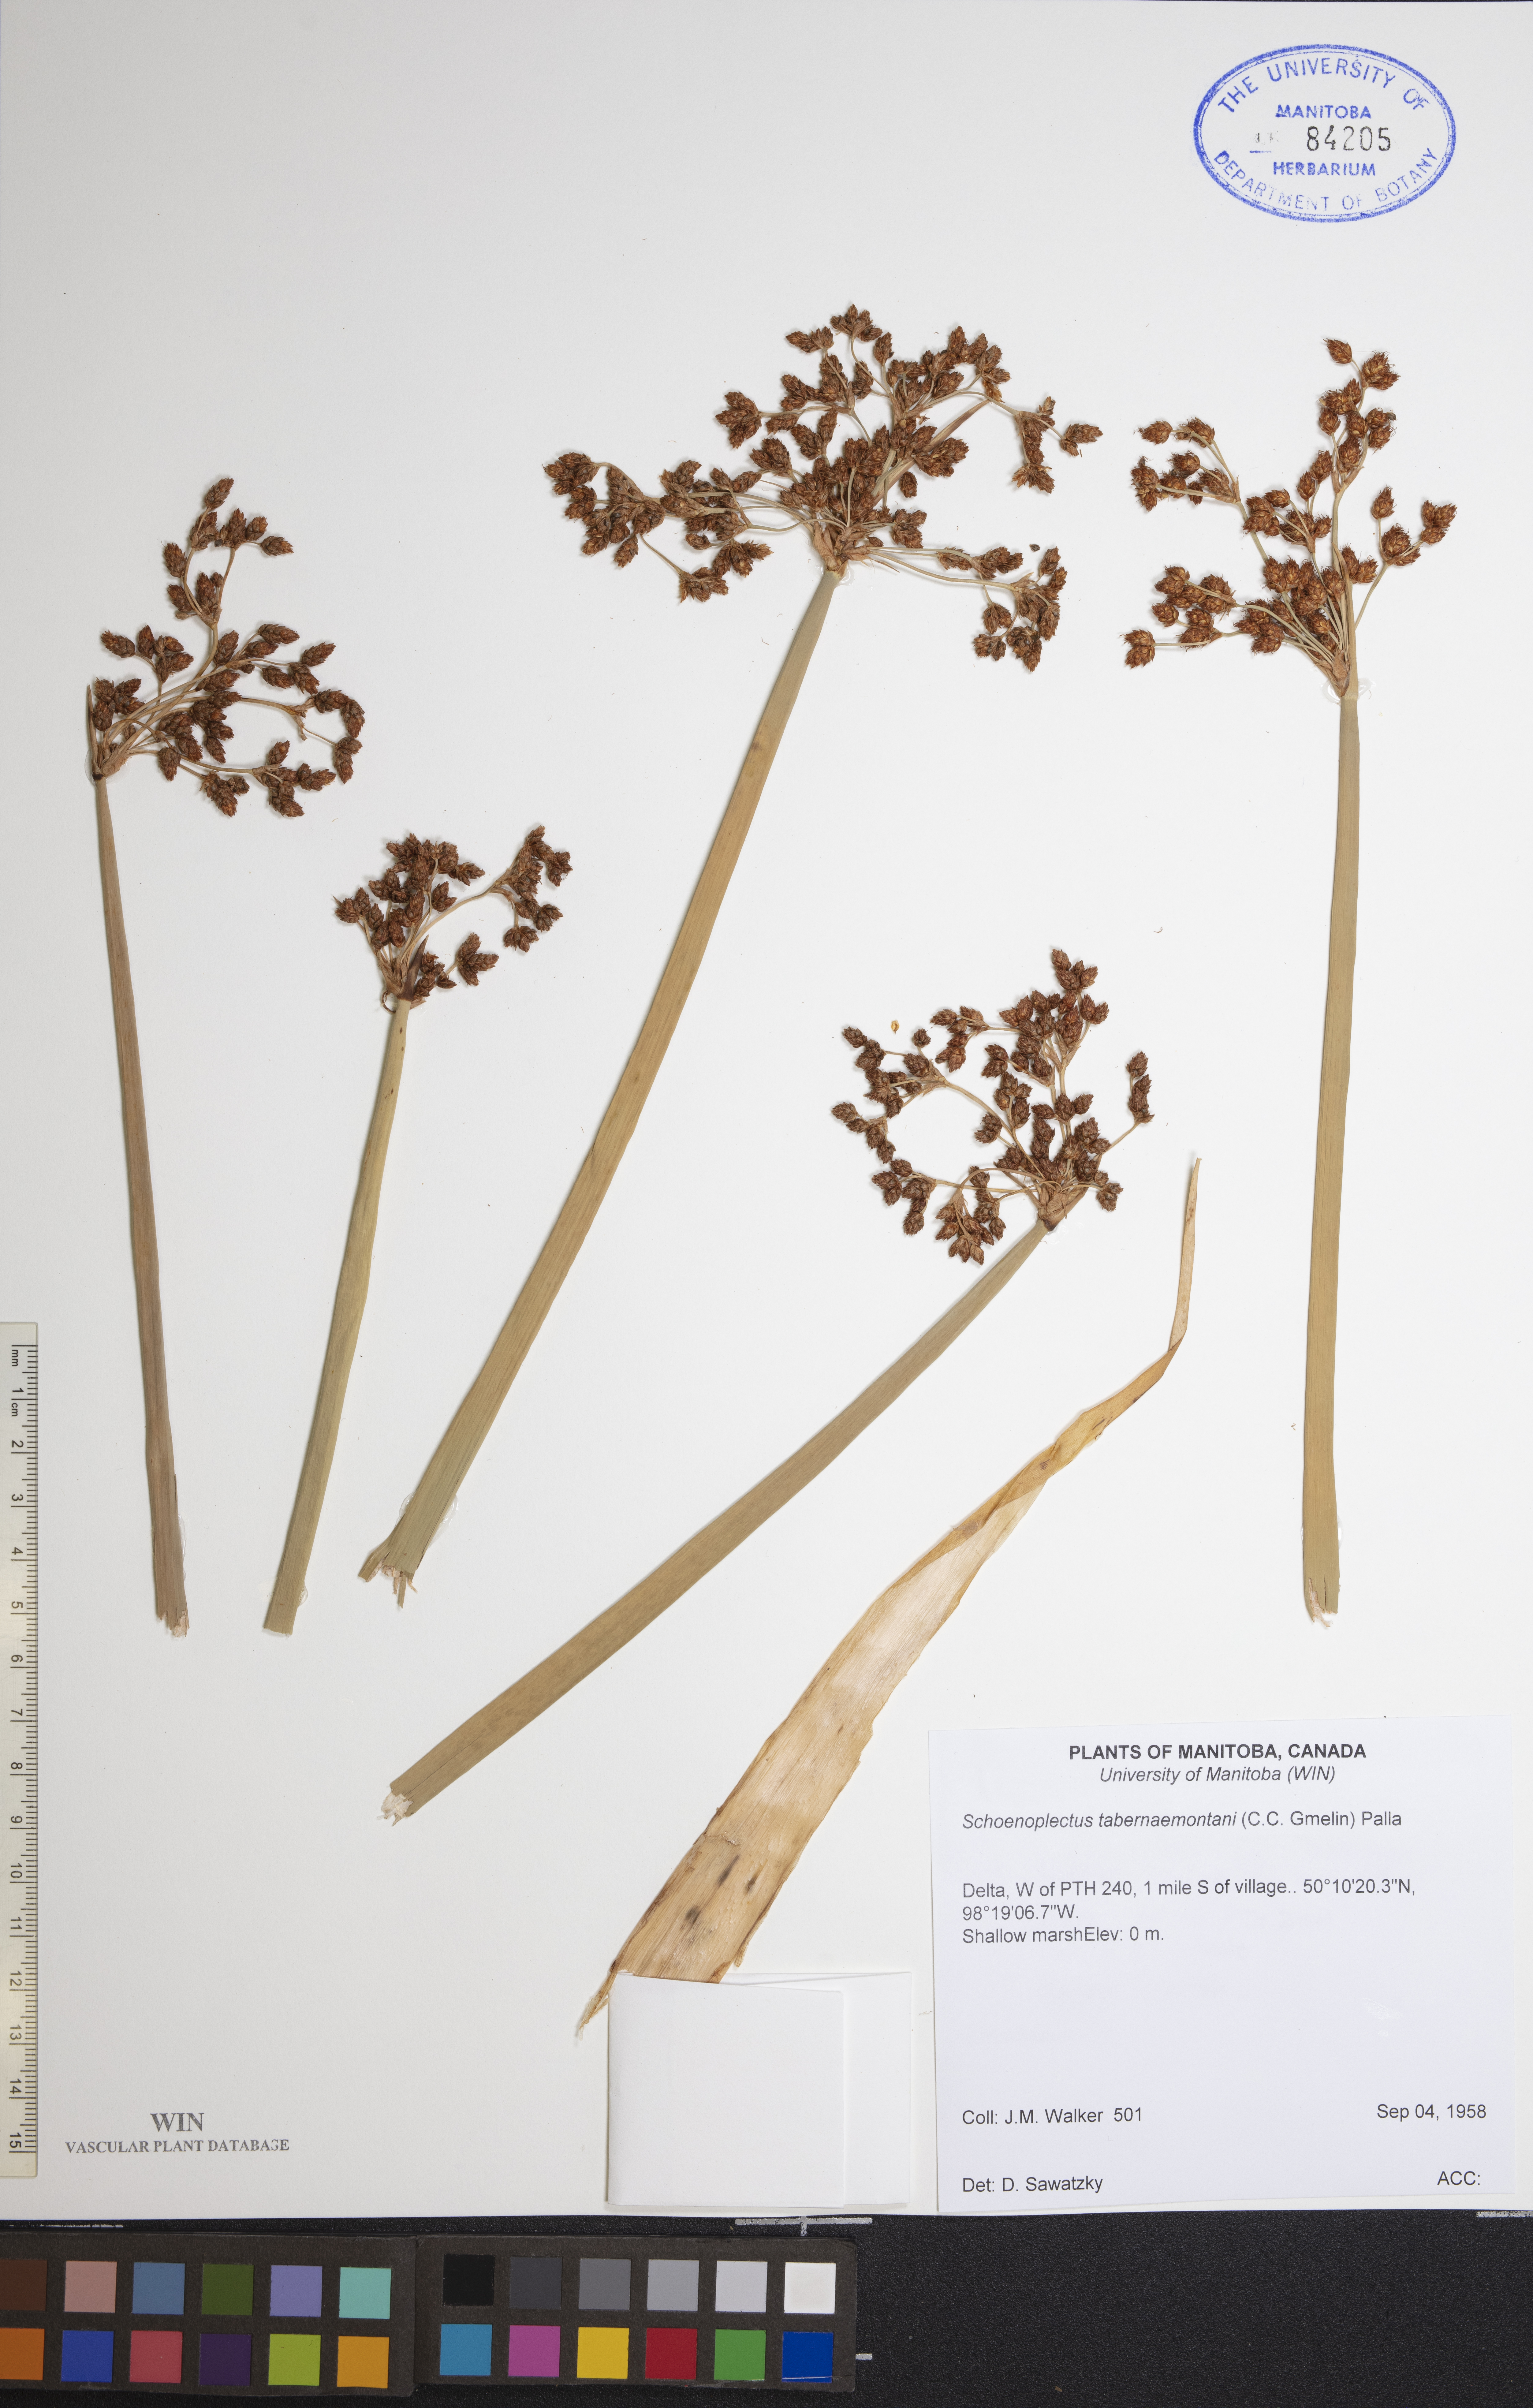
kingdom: Plantae
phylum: Tracheophyta
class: Liliopsida
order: Poales
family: Cyperaceae
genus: Schoenoplectus
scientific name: Schoenoplectus tabernaemontani
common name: Grey club-rush
